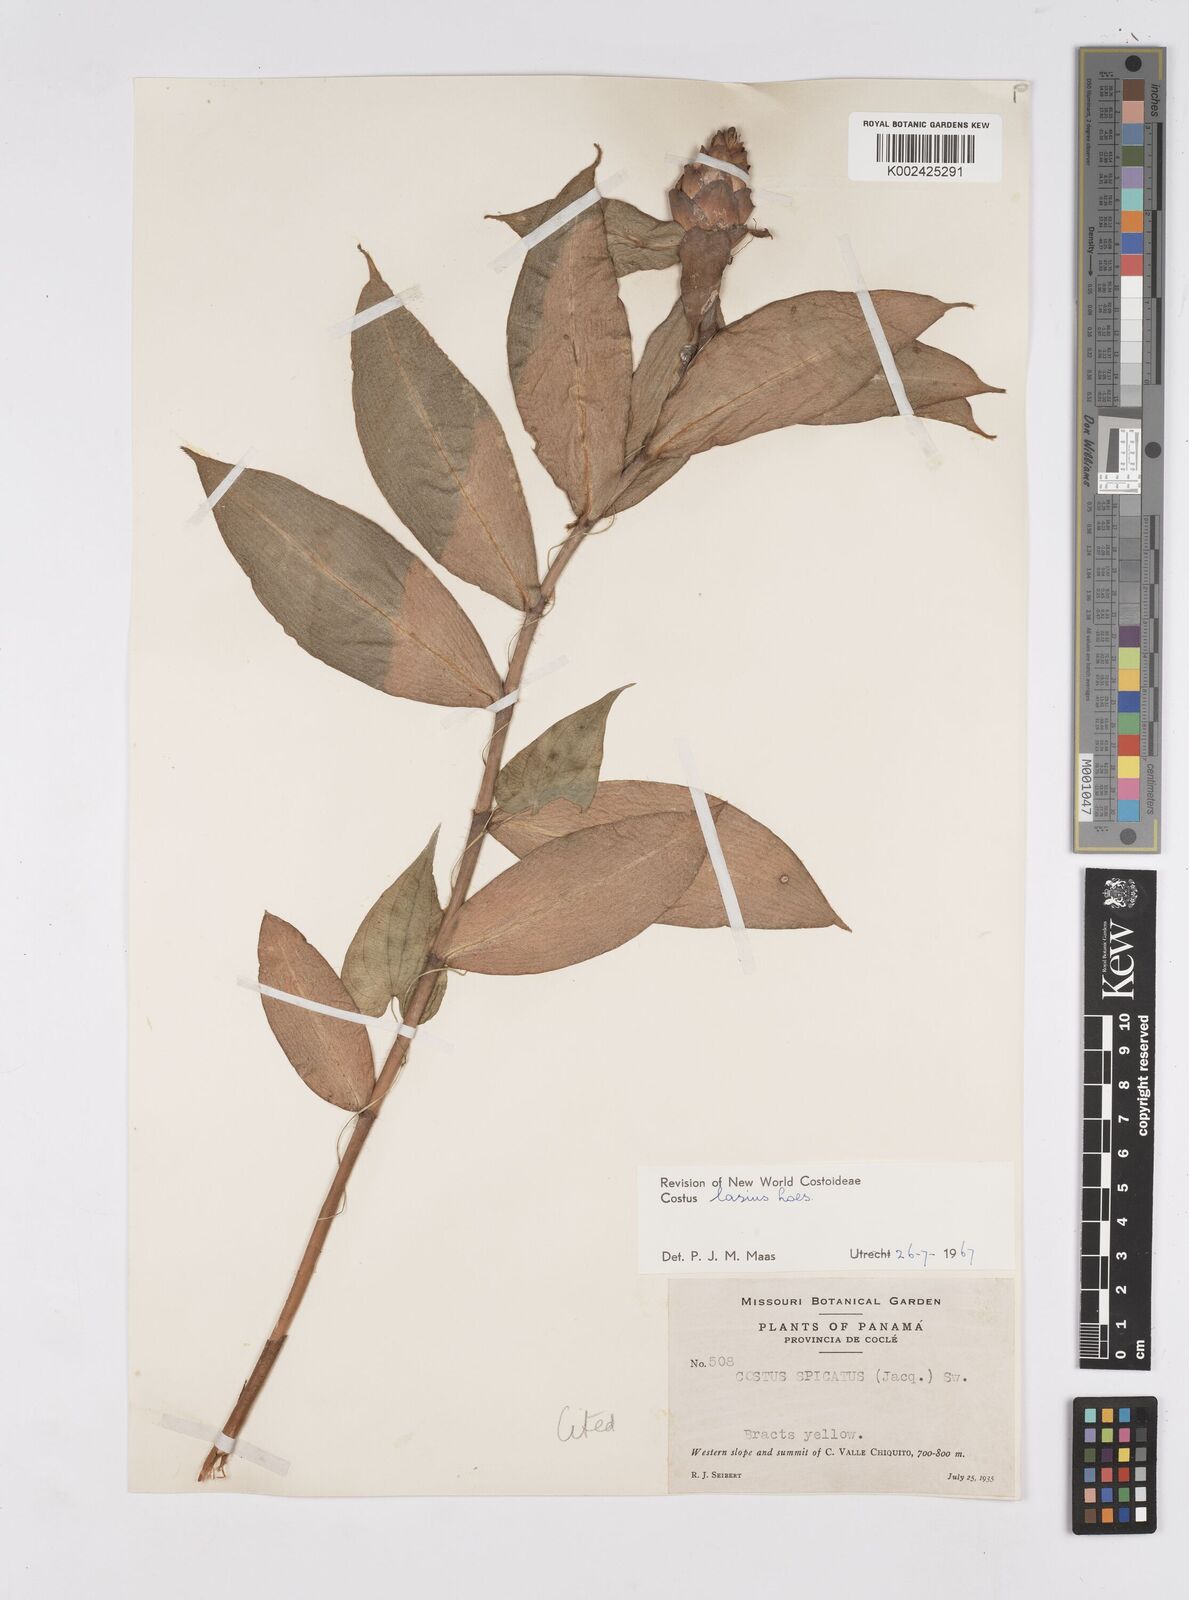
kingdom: Plantae
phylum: Tracheophyta
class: Liliopsida
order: Zingiberales
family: Costaceae
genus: Costus
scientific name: Costus lasius
